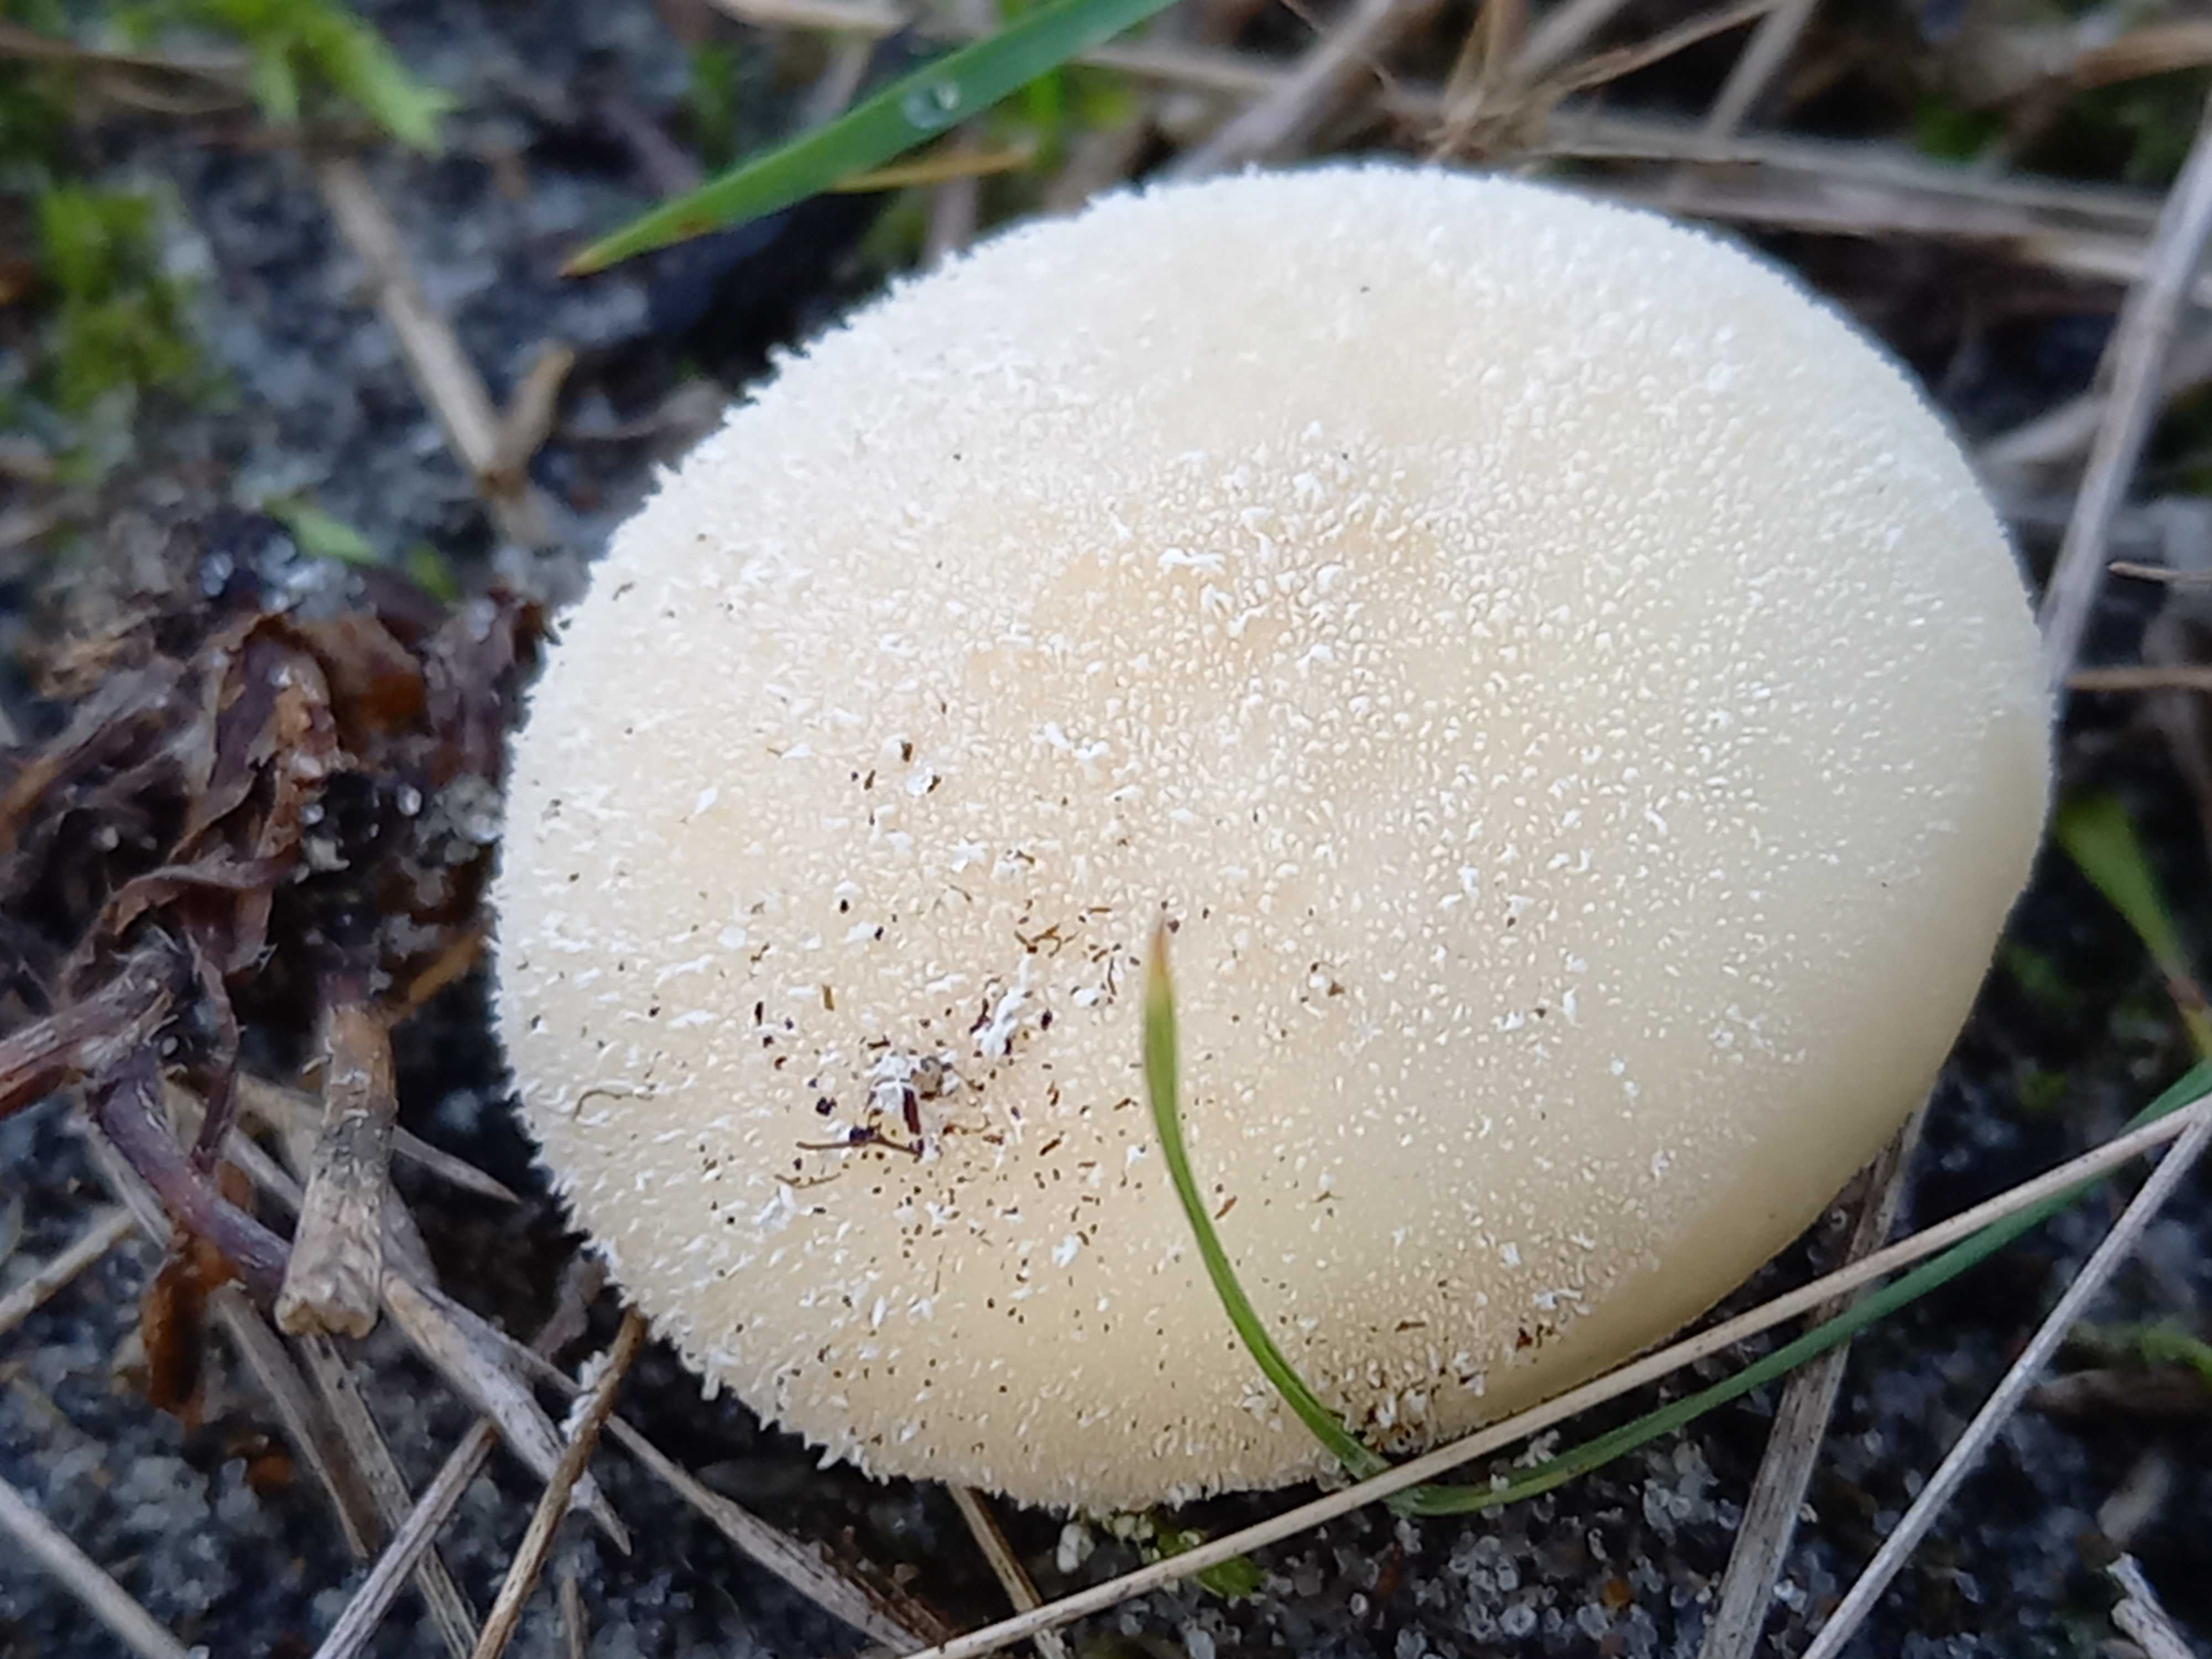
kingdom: Fungi
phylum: Basidiomycota
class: Agaricomycetes
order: Agaricales
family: Lycoperdaceae
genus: Lycoperdon
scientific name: Lycoperdon pratense
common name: flad støvbold
